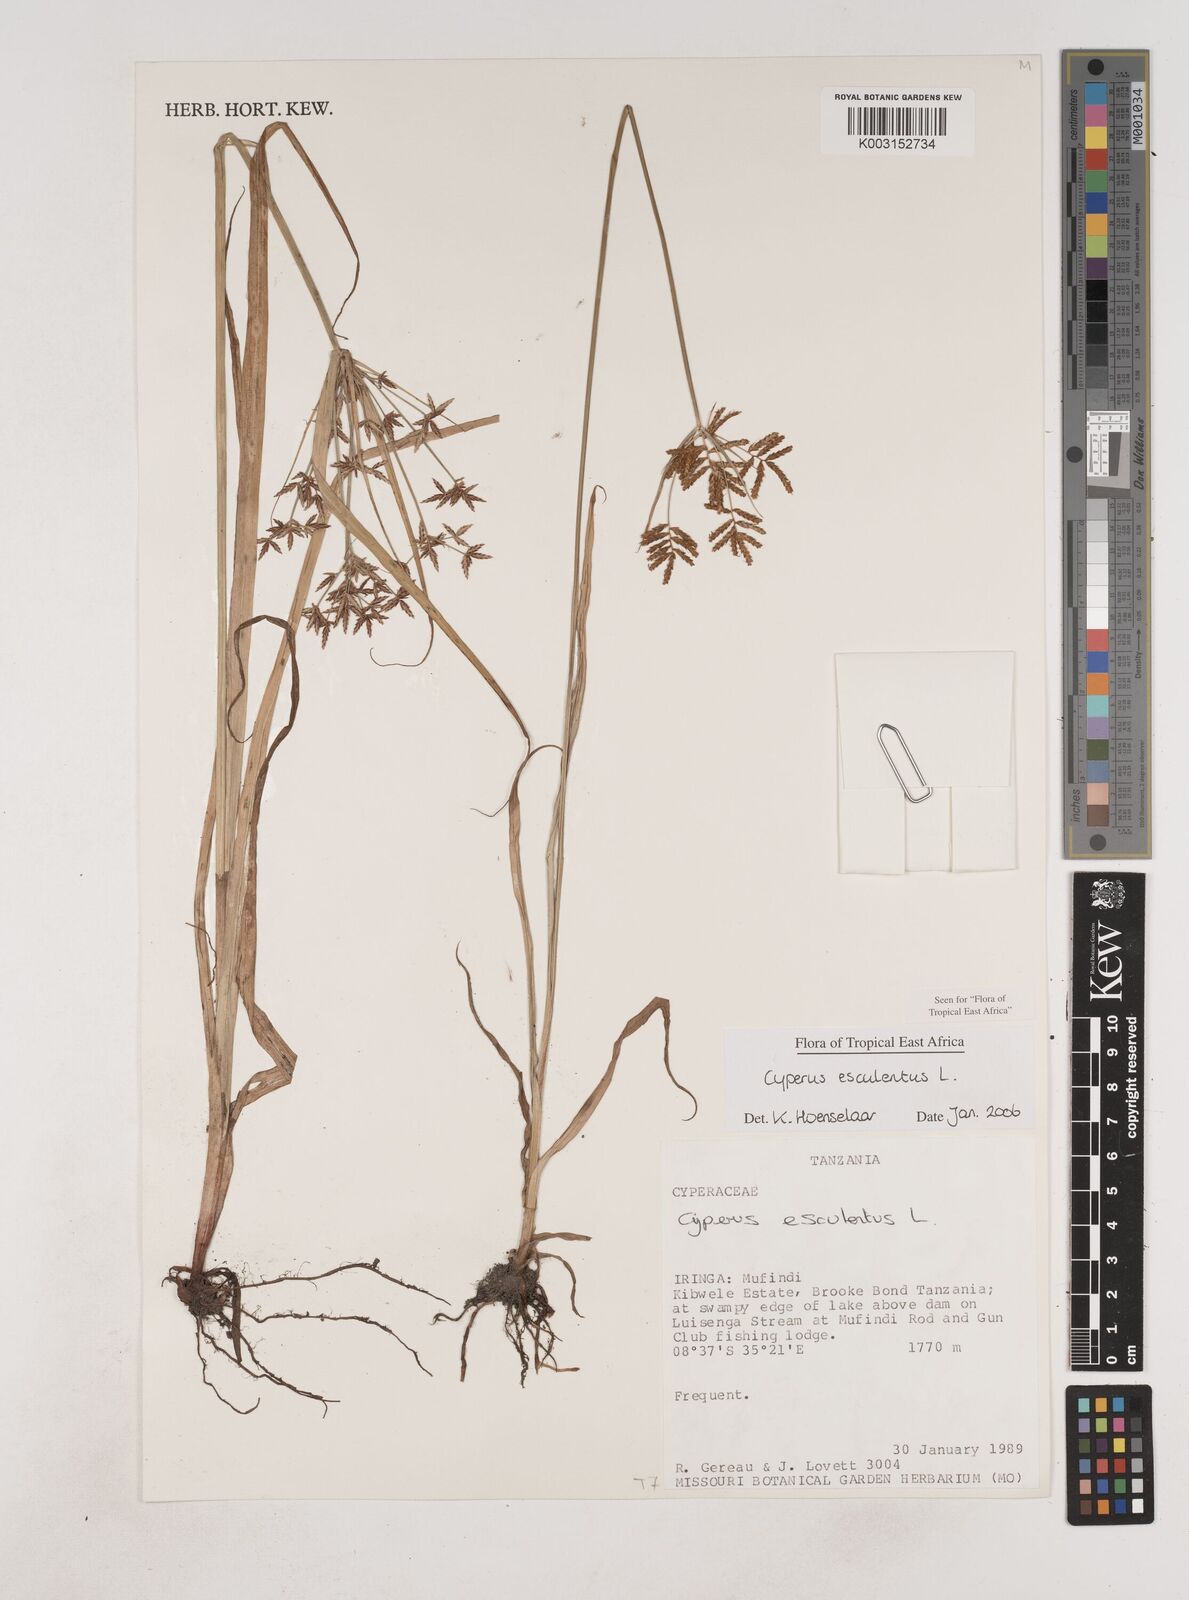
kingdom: Plantae
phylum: Tracheophyta
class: Liliopsida
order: Poales
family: Cyperaceae
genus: Cyperus
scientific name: Cyperus esculentus
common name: Yellow nutsedge
